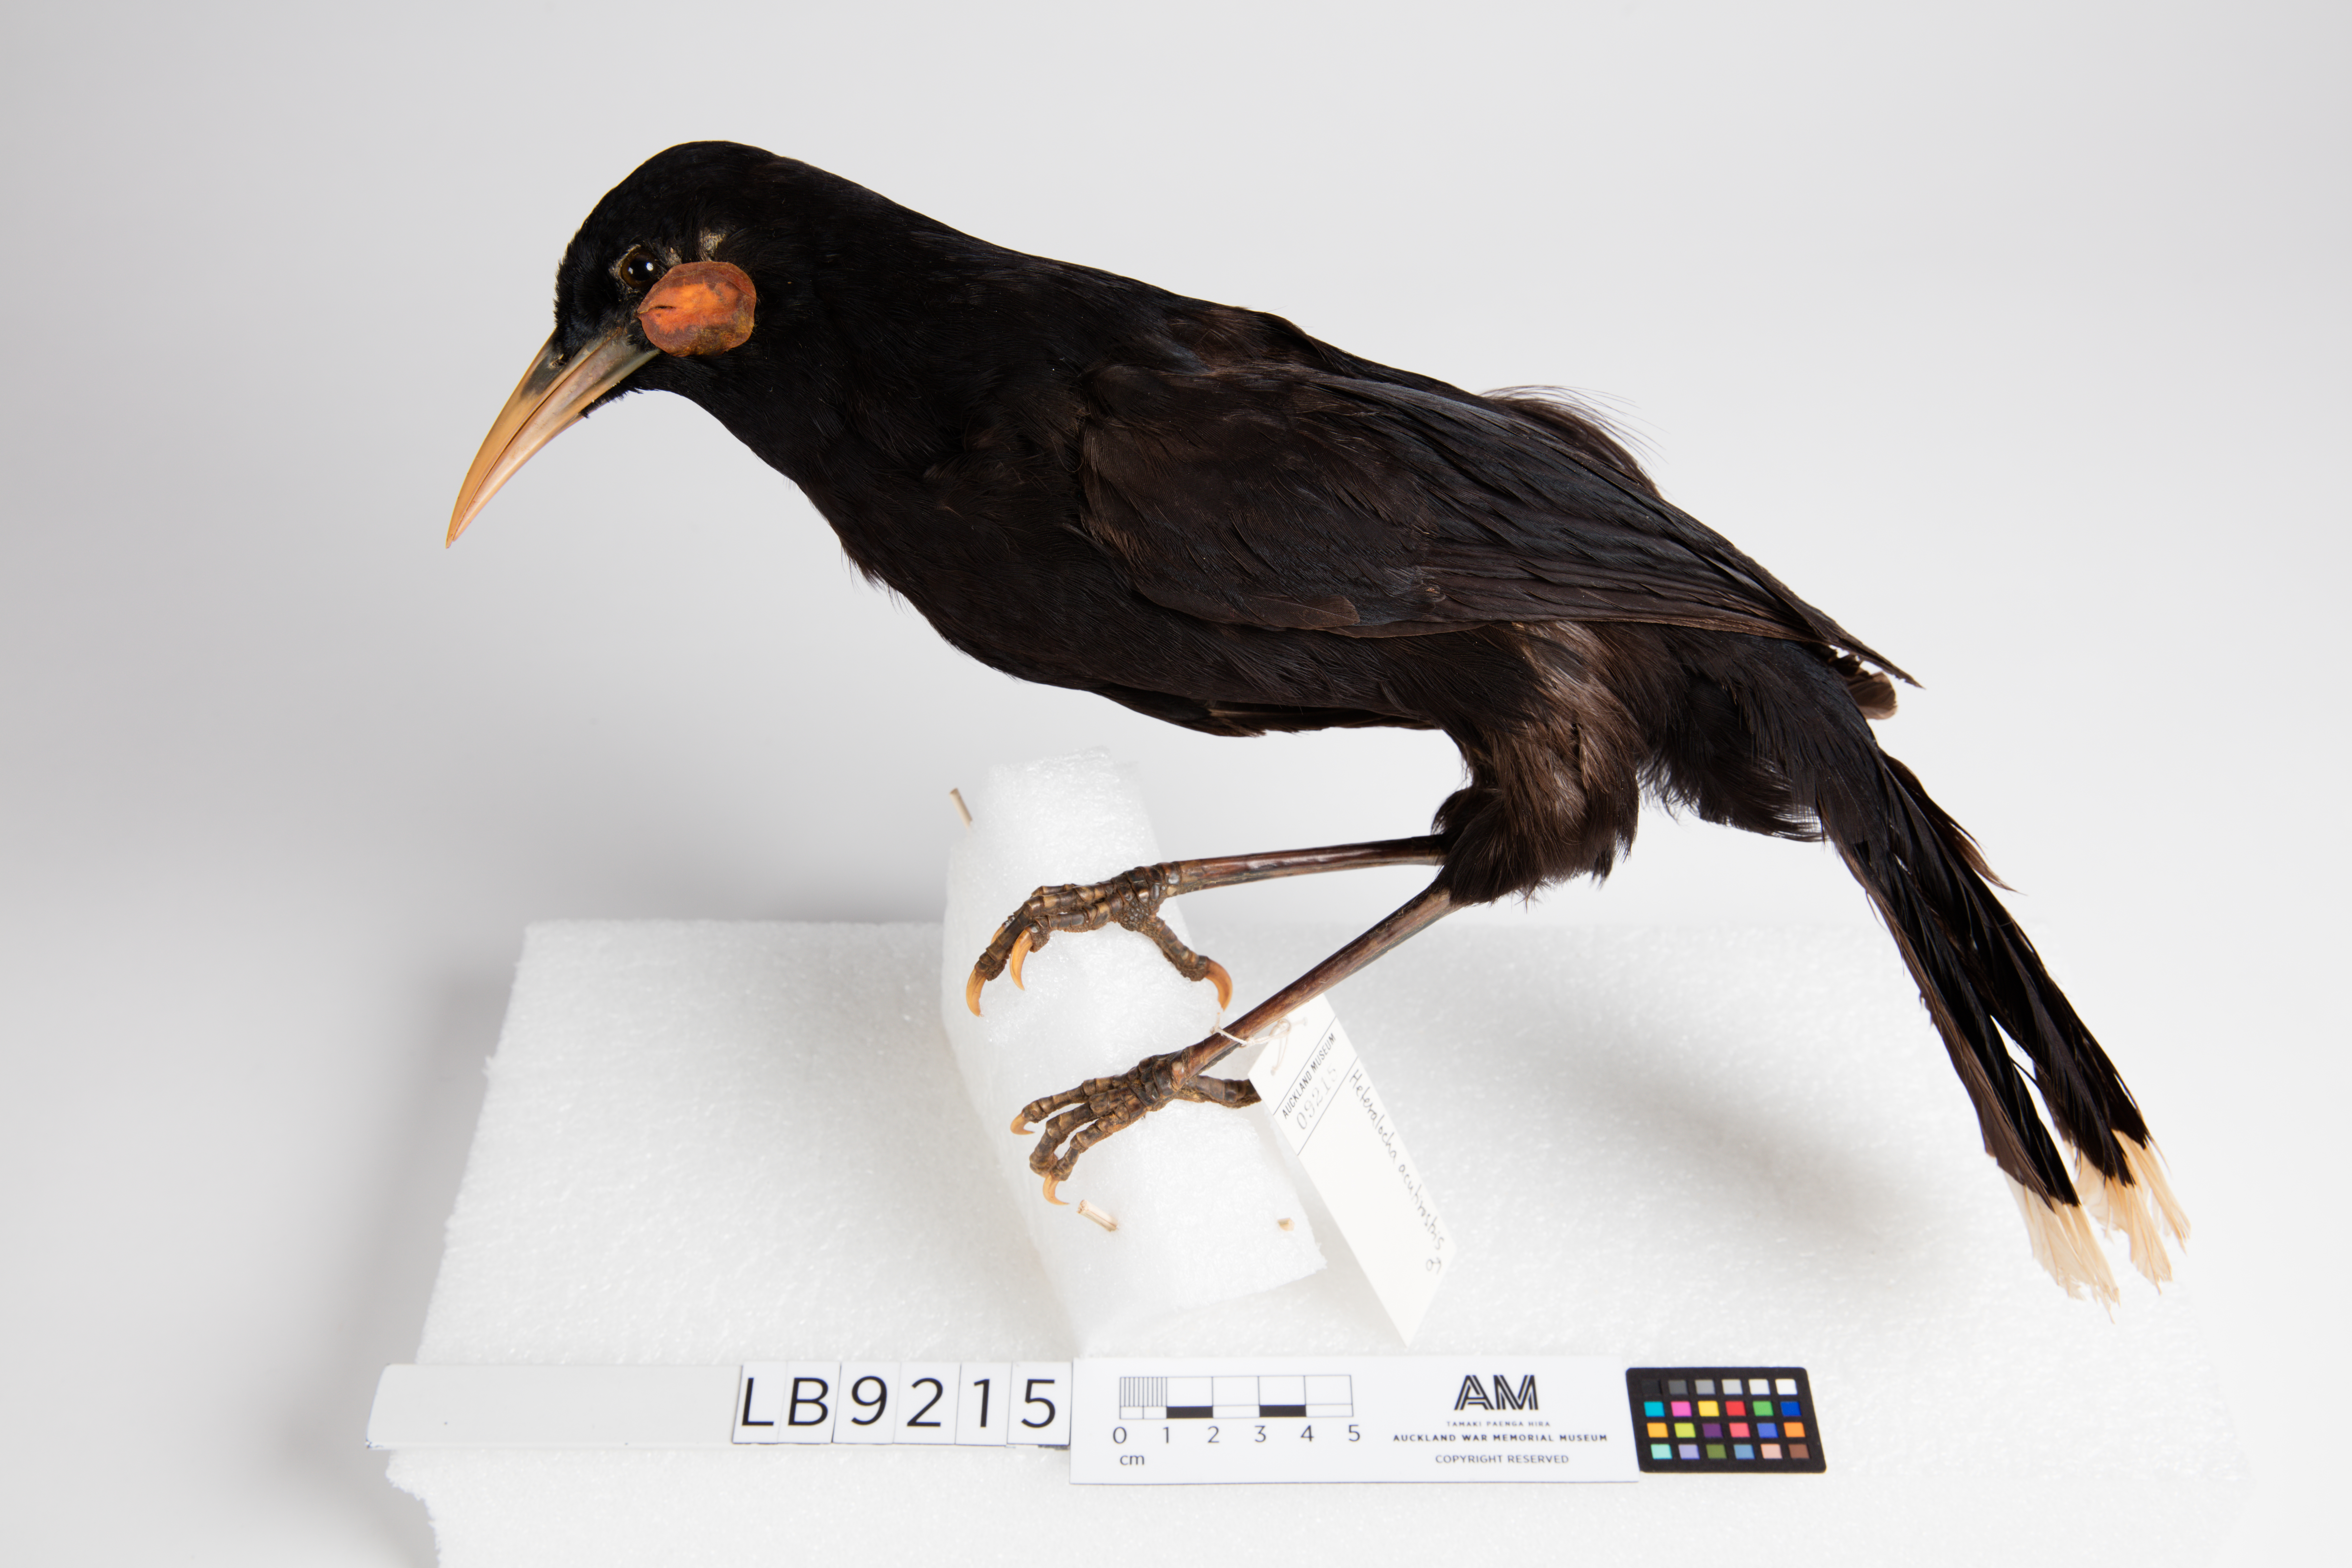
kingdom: Animalia
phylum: Chordata
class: Aves
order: Passeriformes
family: Callaeatidae
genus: Heteralocha
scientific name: Heteralocha acutirostris
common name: Huia
